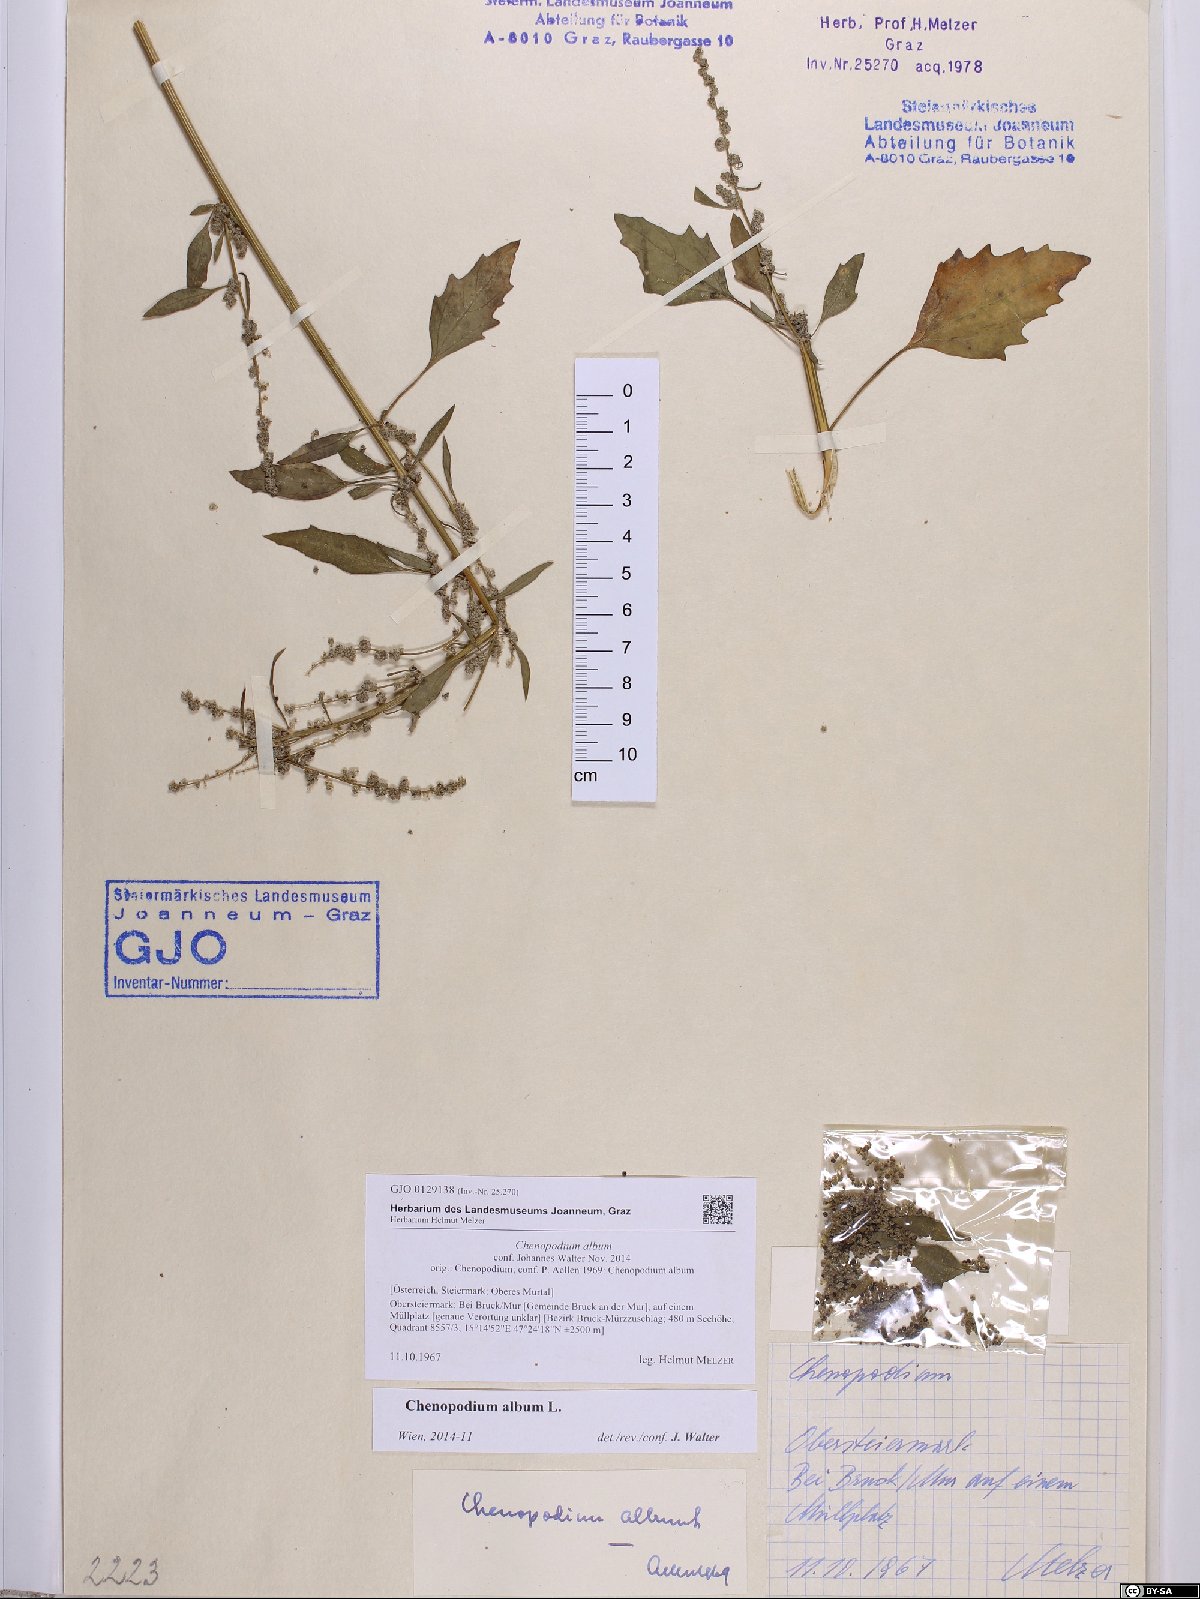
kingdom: Plantae
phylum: Tracheophyta
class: Magnoliopsida
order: Caryophyllales
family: Amaranthaceae
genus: Chenopodium
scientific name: Chenopodium album
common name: Fat-hen
